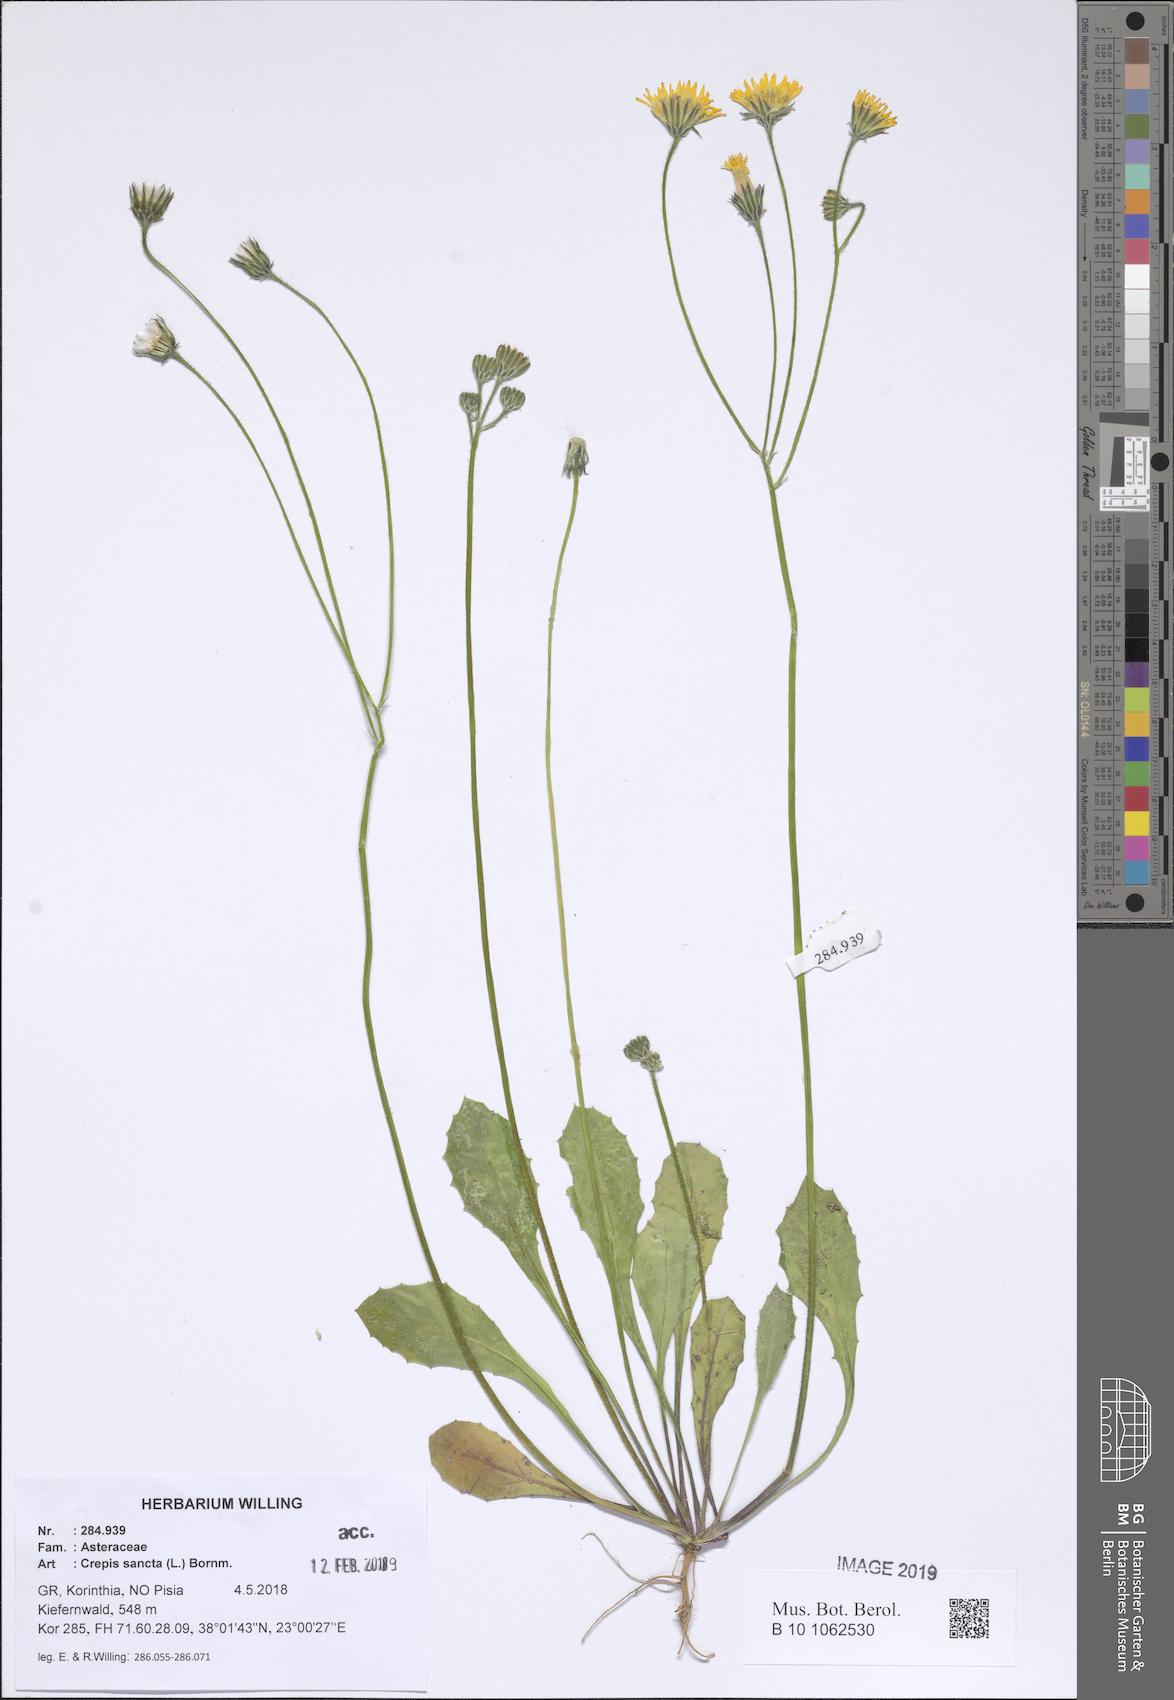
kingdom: Plantae
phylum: Tracheophyta
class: Magnoliopsida
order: Asterales
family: Asteraceae
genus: Crepis
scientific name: Crepis sancta
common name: Hawk's-beard
